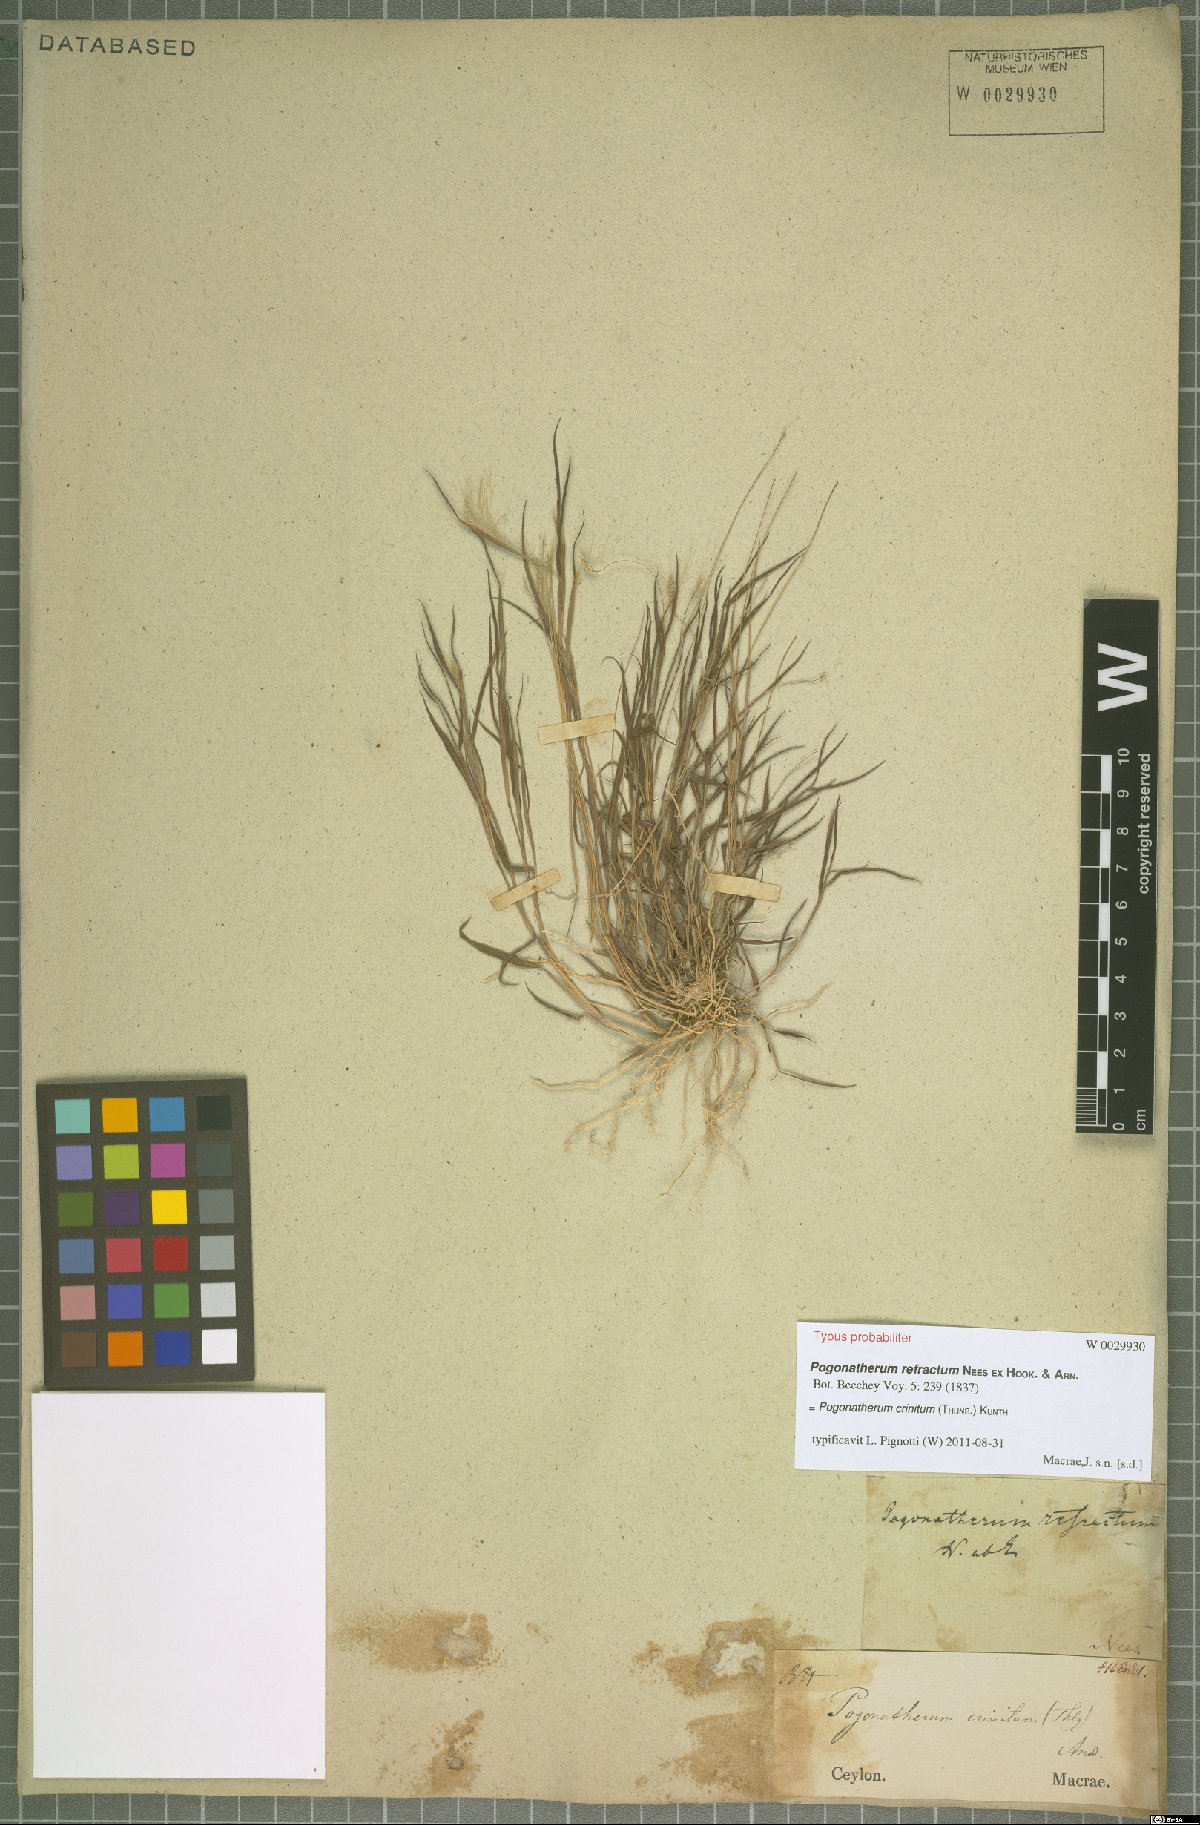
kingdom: Plantae
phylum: Tracheophyta
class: Liliopsida
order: Poales
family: Poaceae
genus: Pogonatherum
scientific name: Pogonatherum crinitum
